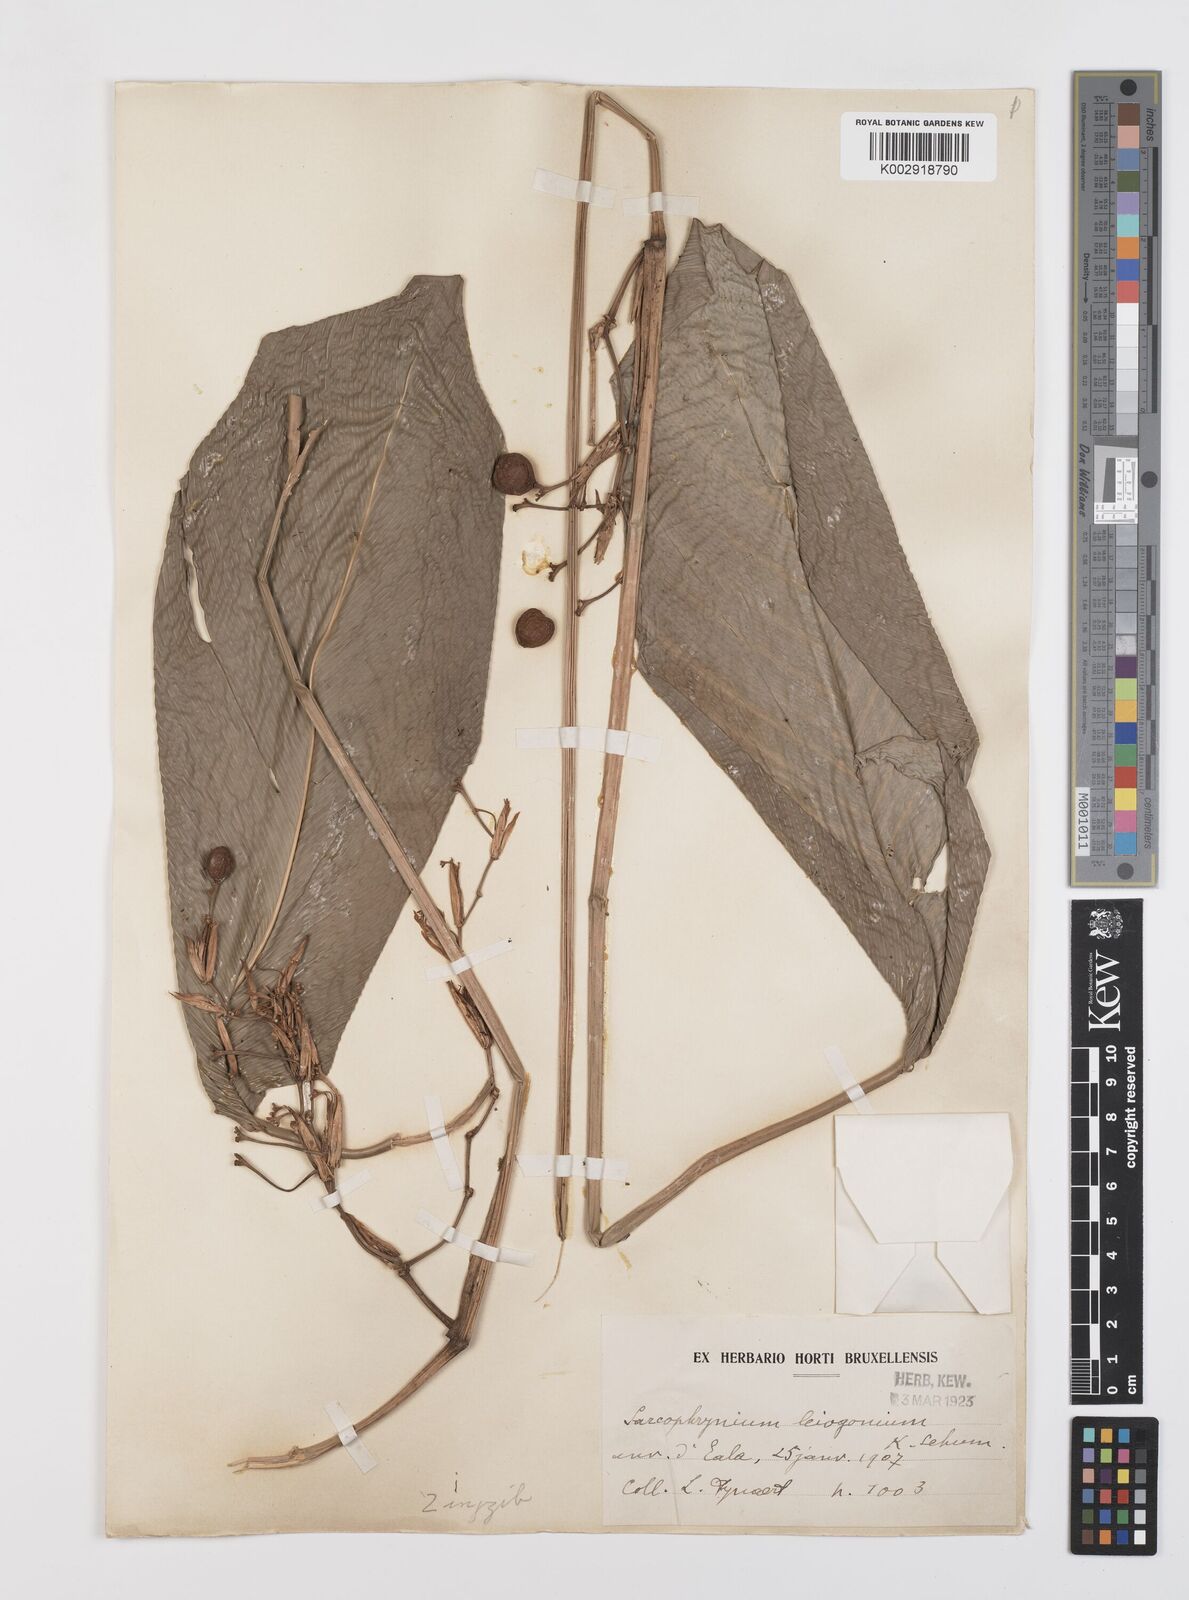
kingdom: Plantae
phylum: Tracheophyta
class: Liliopsida
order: Zingiberales
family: Marantaceae
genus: Sarcophrynium
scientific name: Sarcophrynium schweinfurthianum
